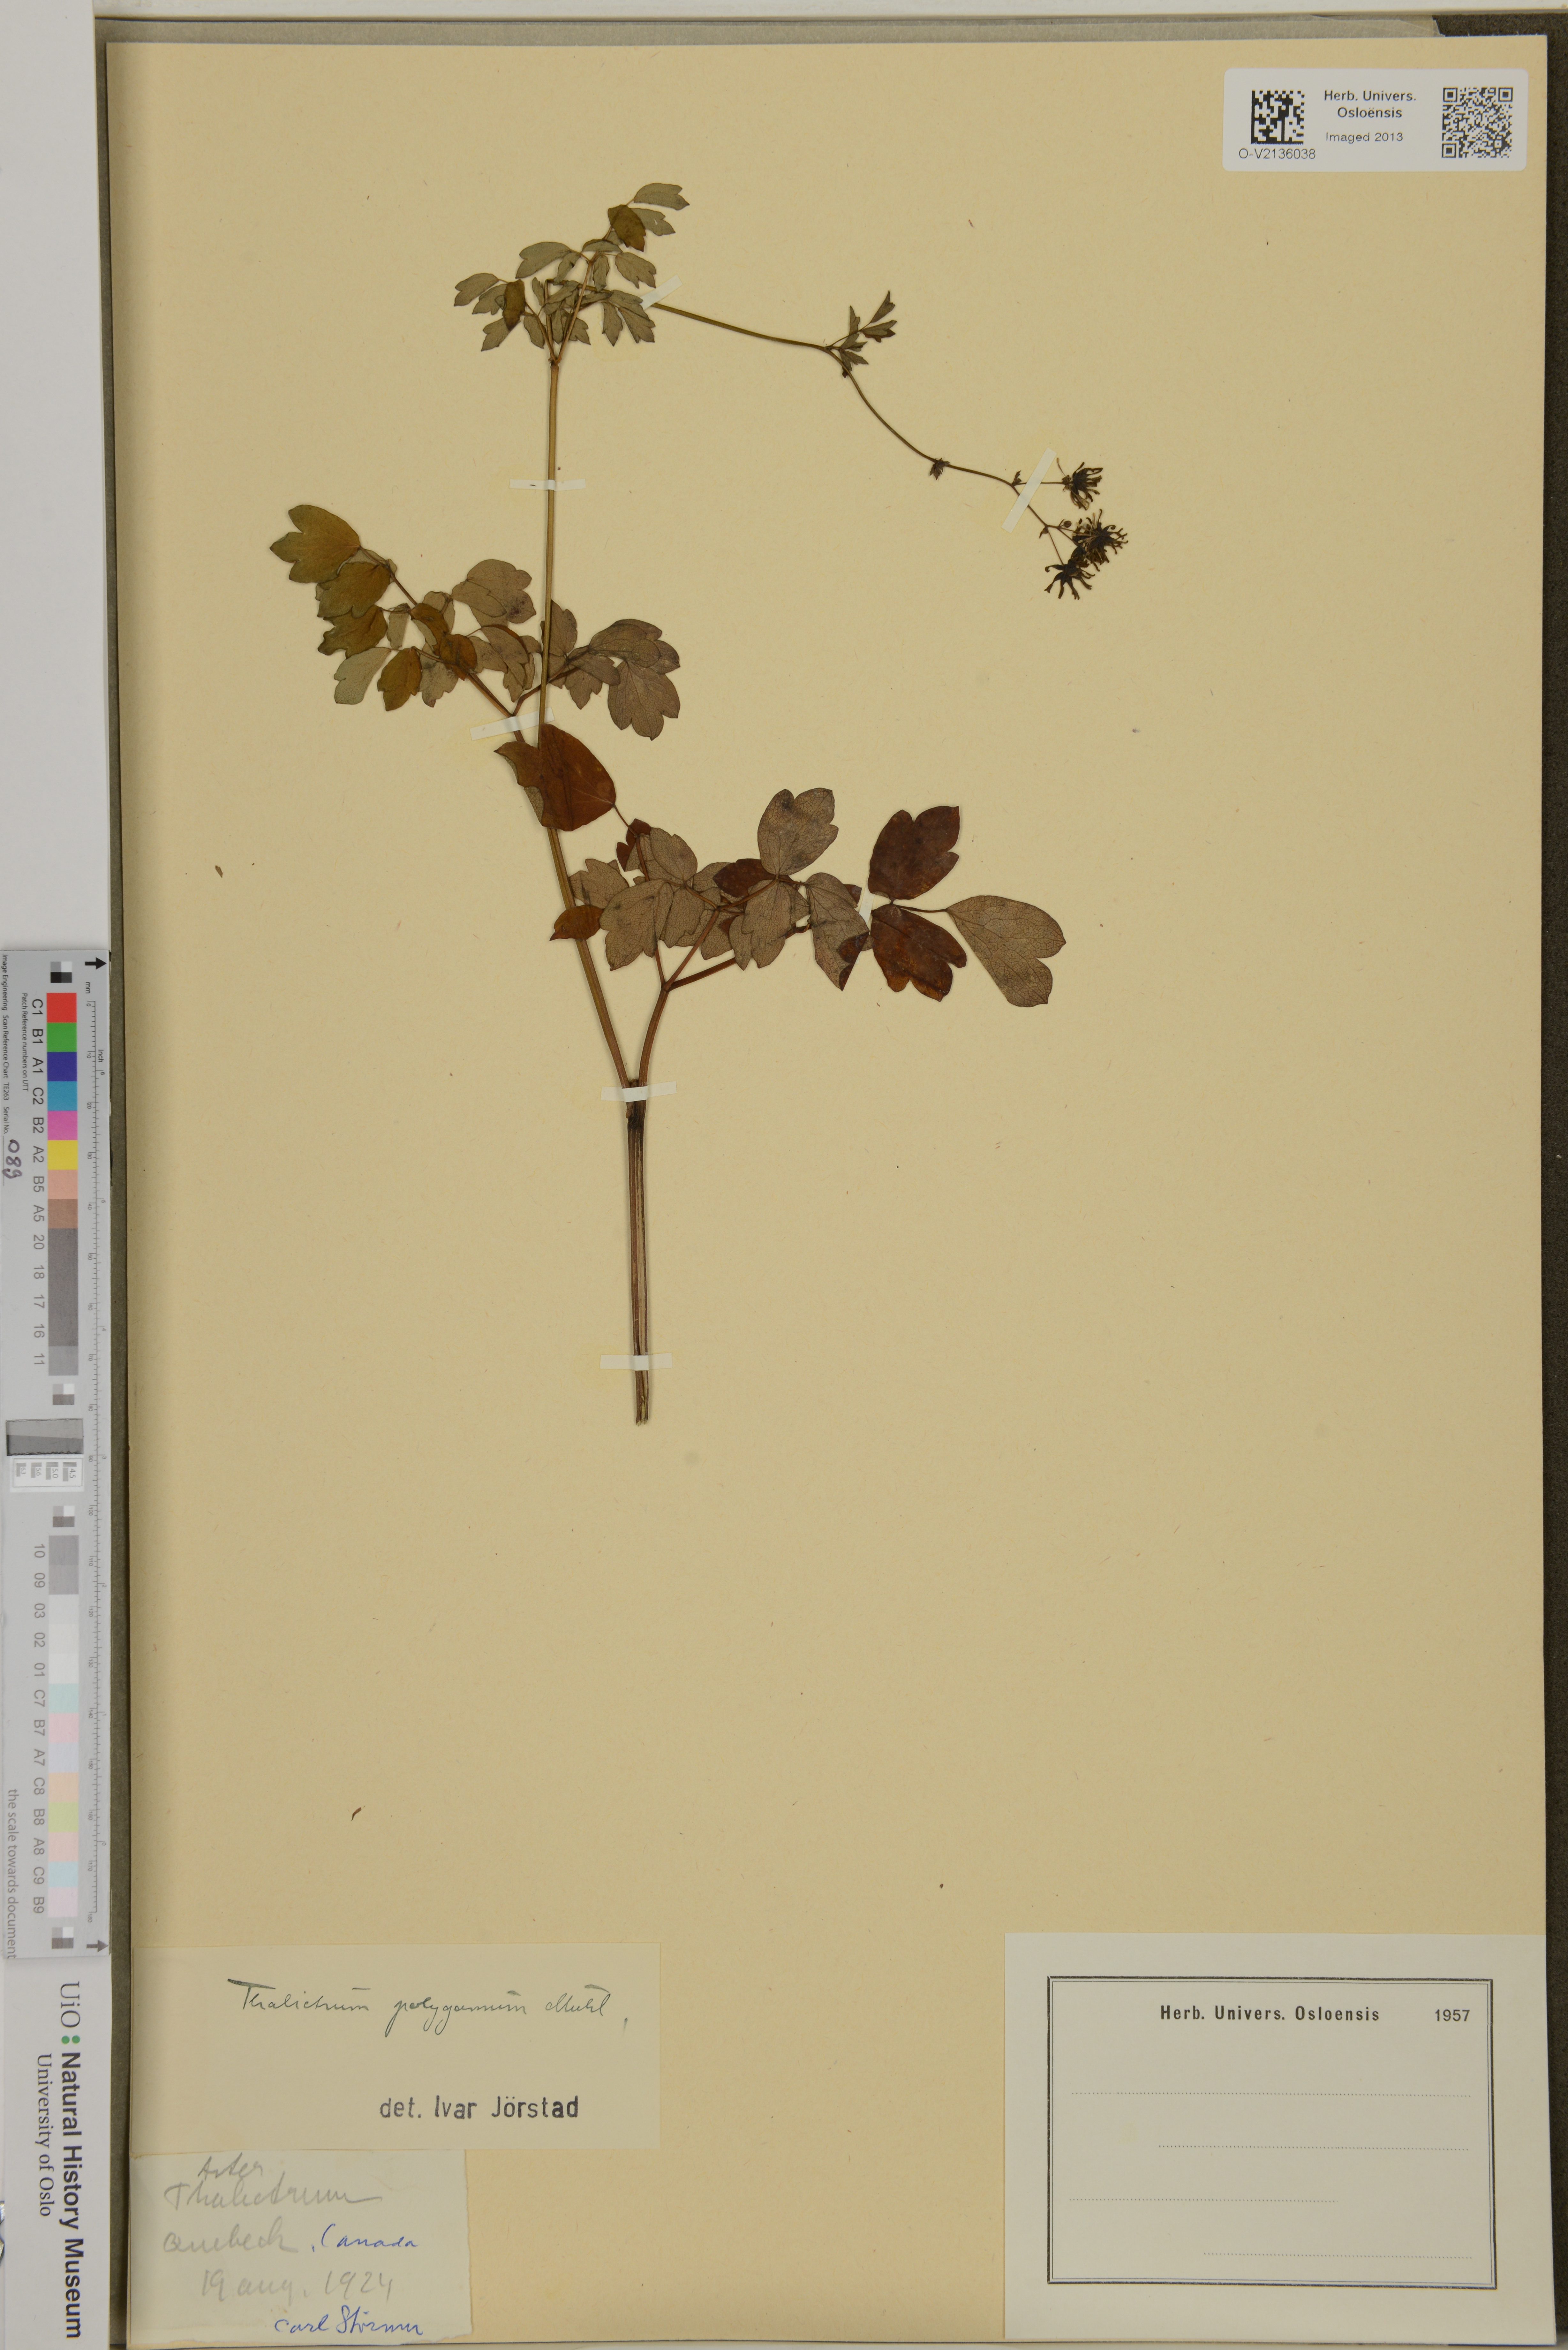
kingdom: Plantae
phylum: Tracheophyta
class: Magnoliopsida
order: Ranunculales
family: Ranunculaceae
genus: Thalictrum
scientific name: Thalictrum pubescens
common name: King-of-the-meadow
